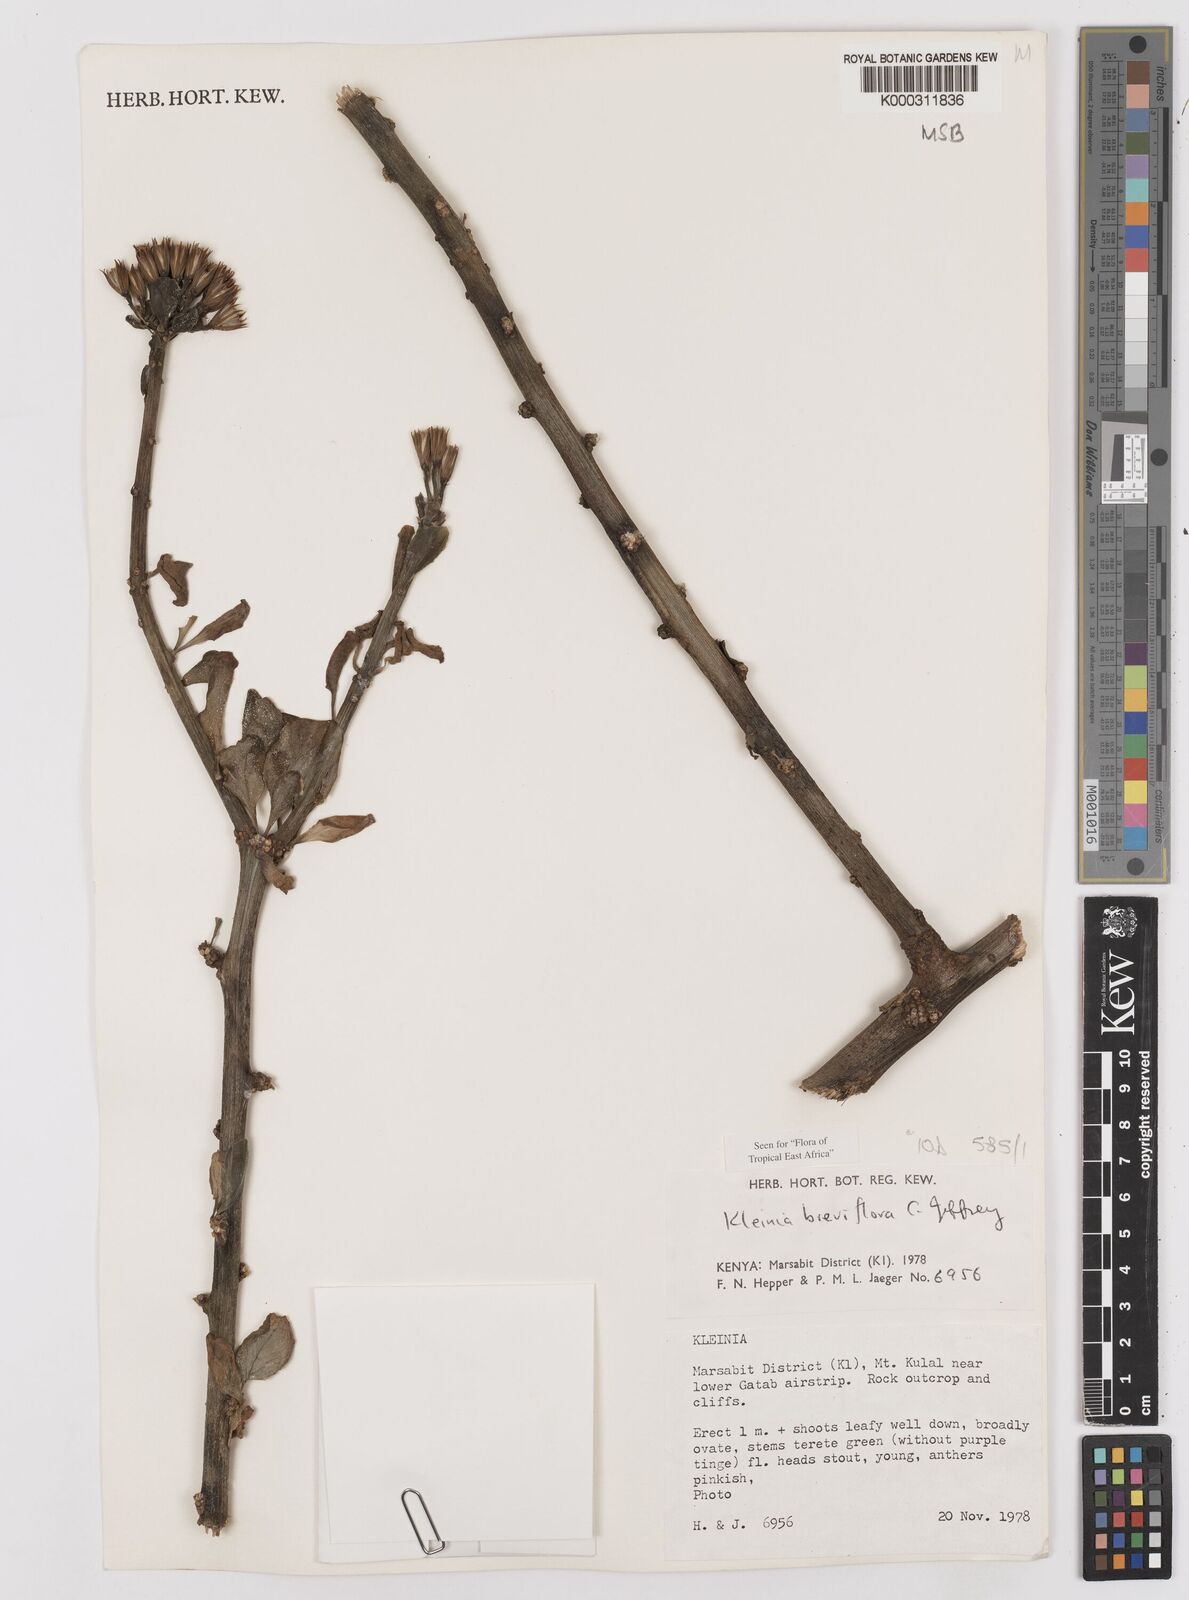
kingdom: Plantae
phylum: Tracheophyta
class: Magnoliopsida
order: Asterales
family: Asteraceae
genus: Kleinia
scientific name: Kleinia polycotoma
